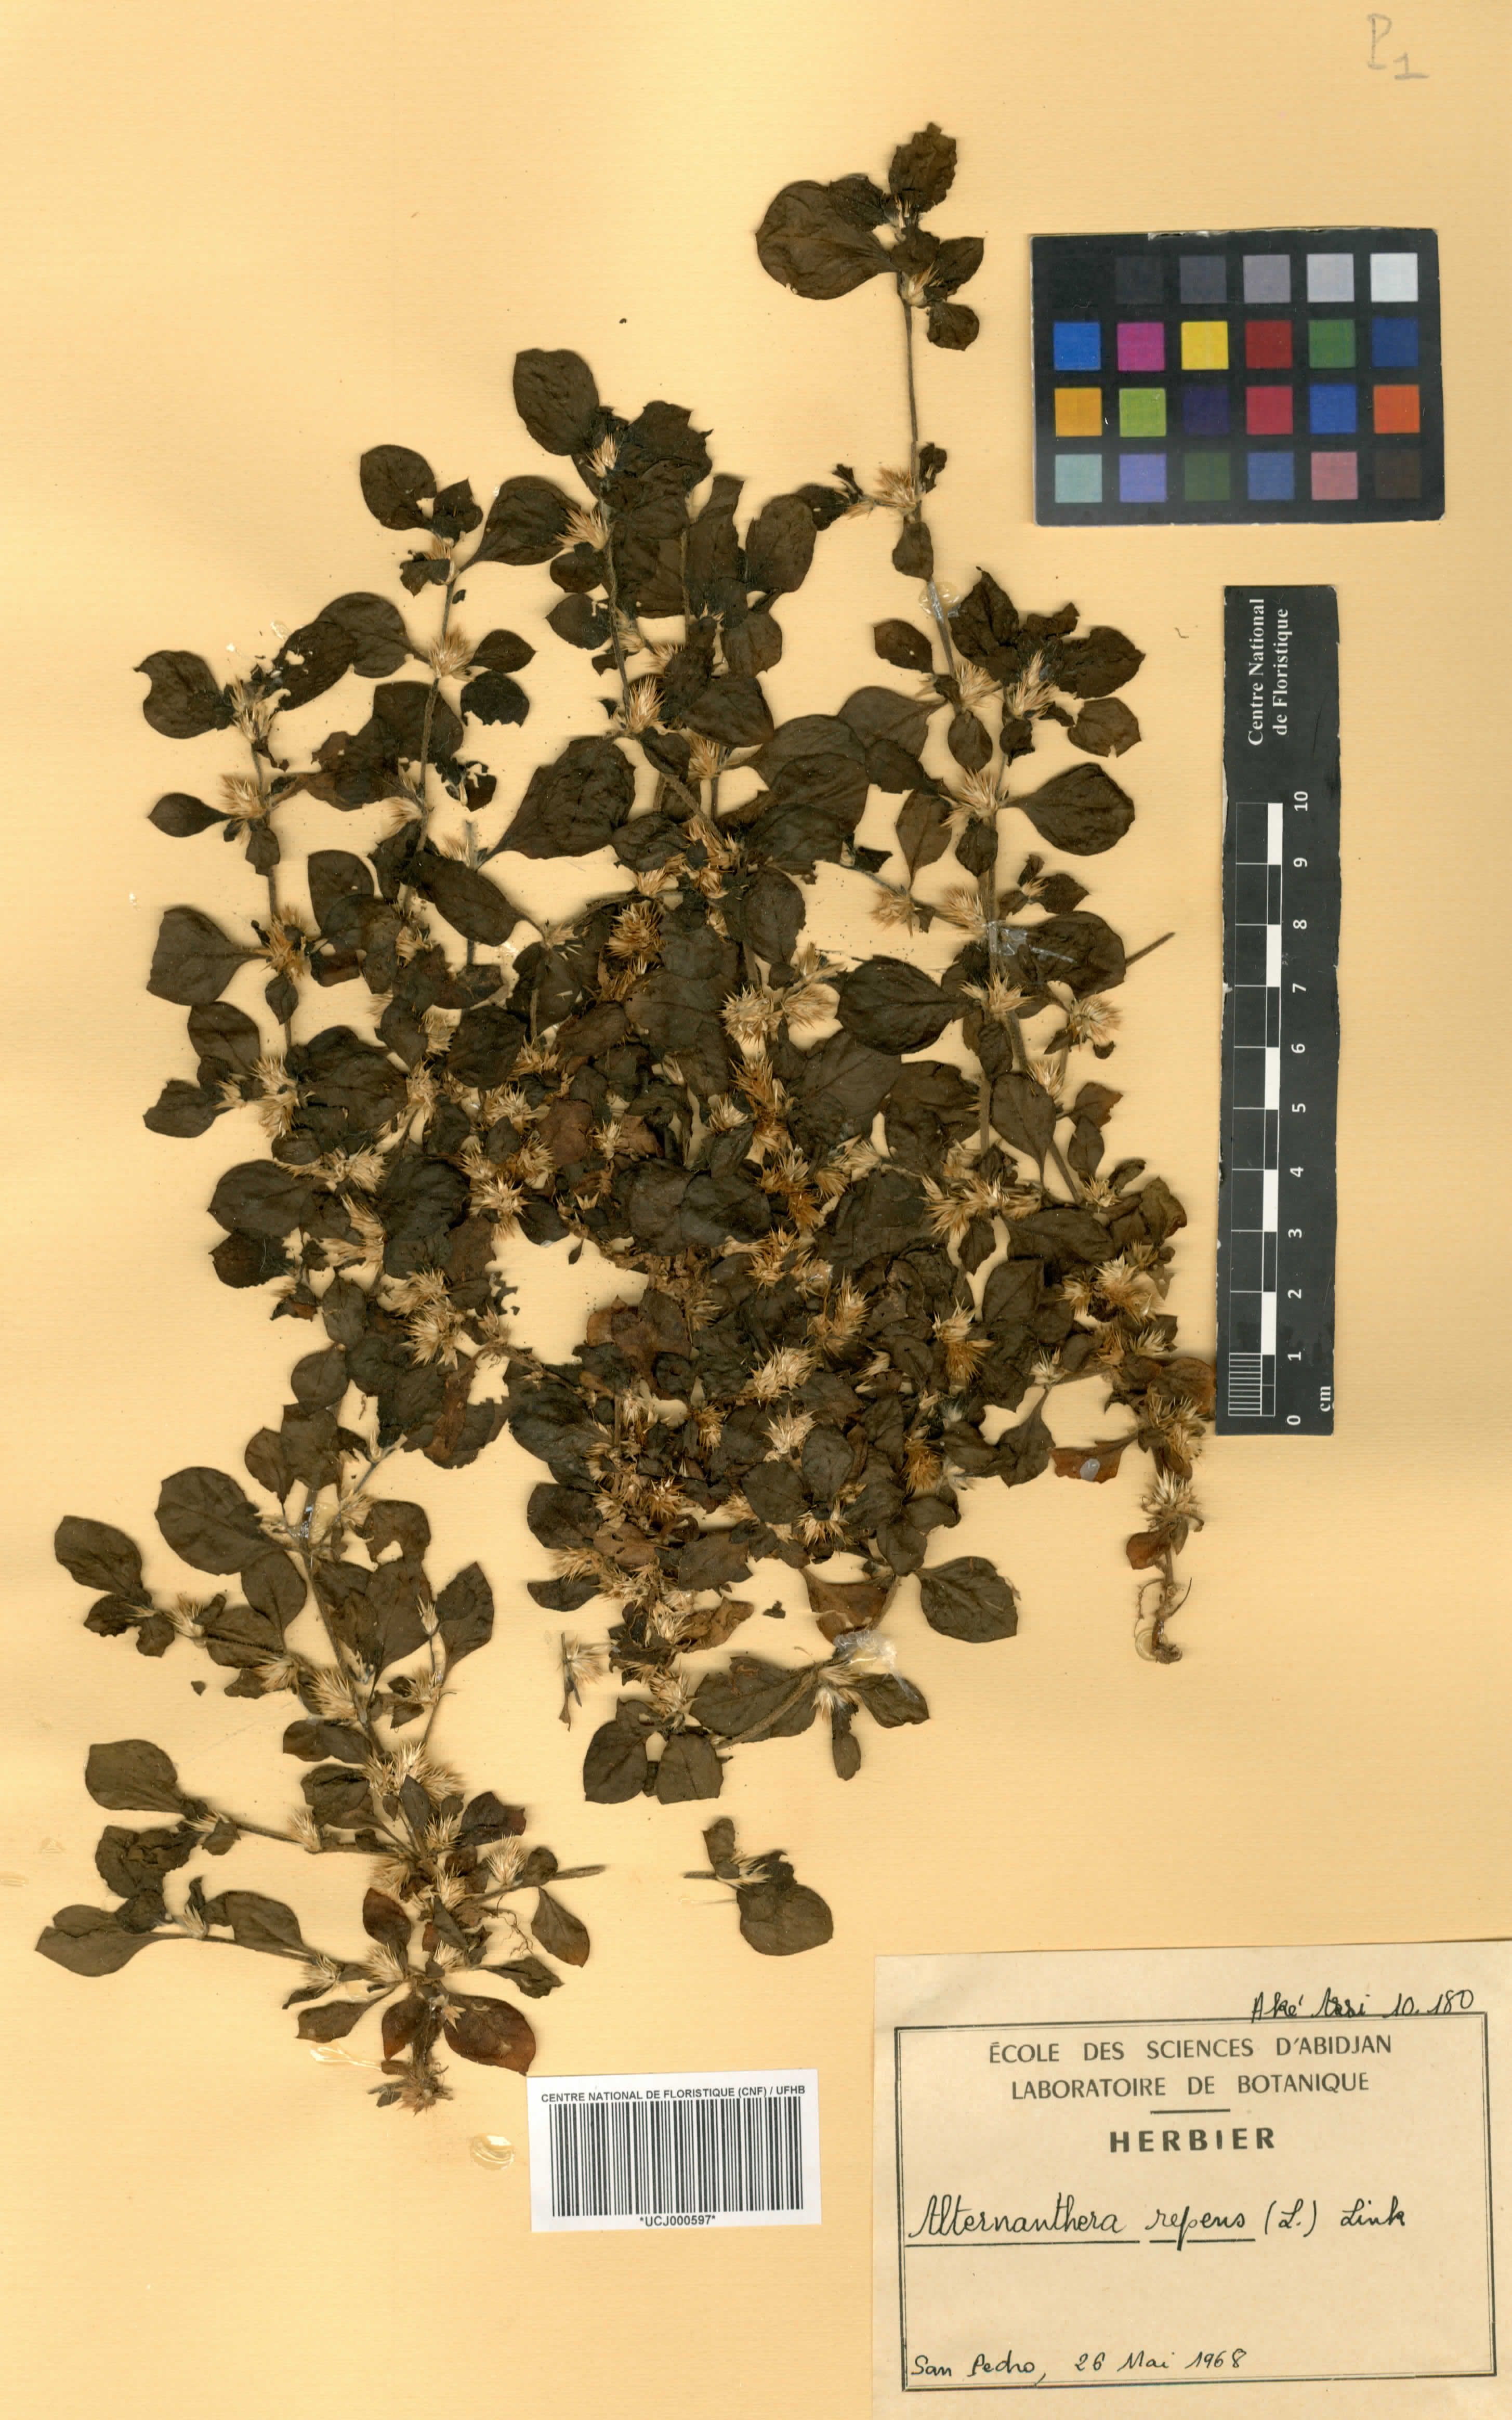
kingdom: Plantae
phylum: Tracheophyta
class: Magnoliopsida
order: Caryophyllales
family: Amaranthaceae
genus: Alternanthera
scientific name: Alternanthera
